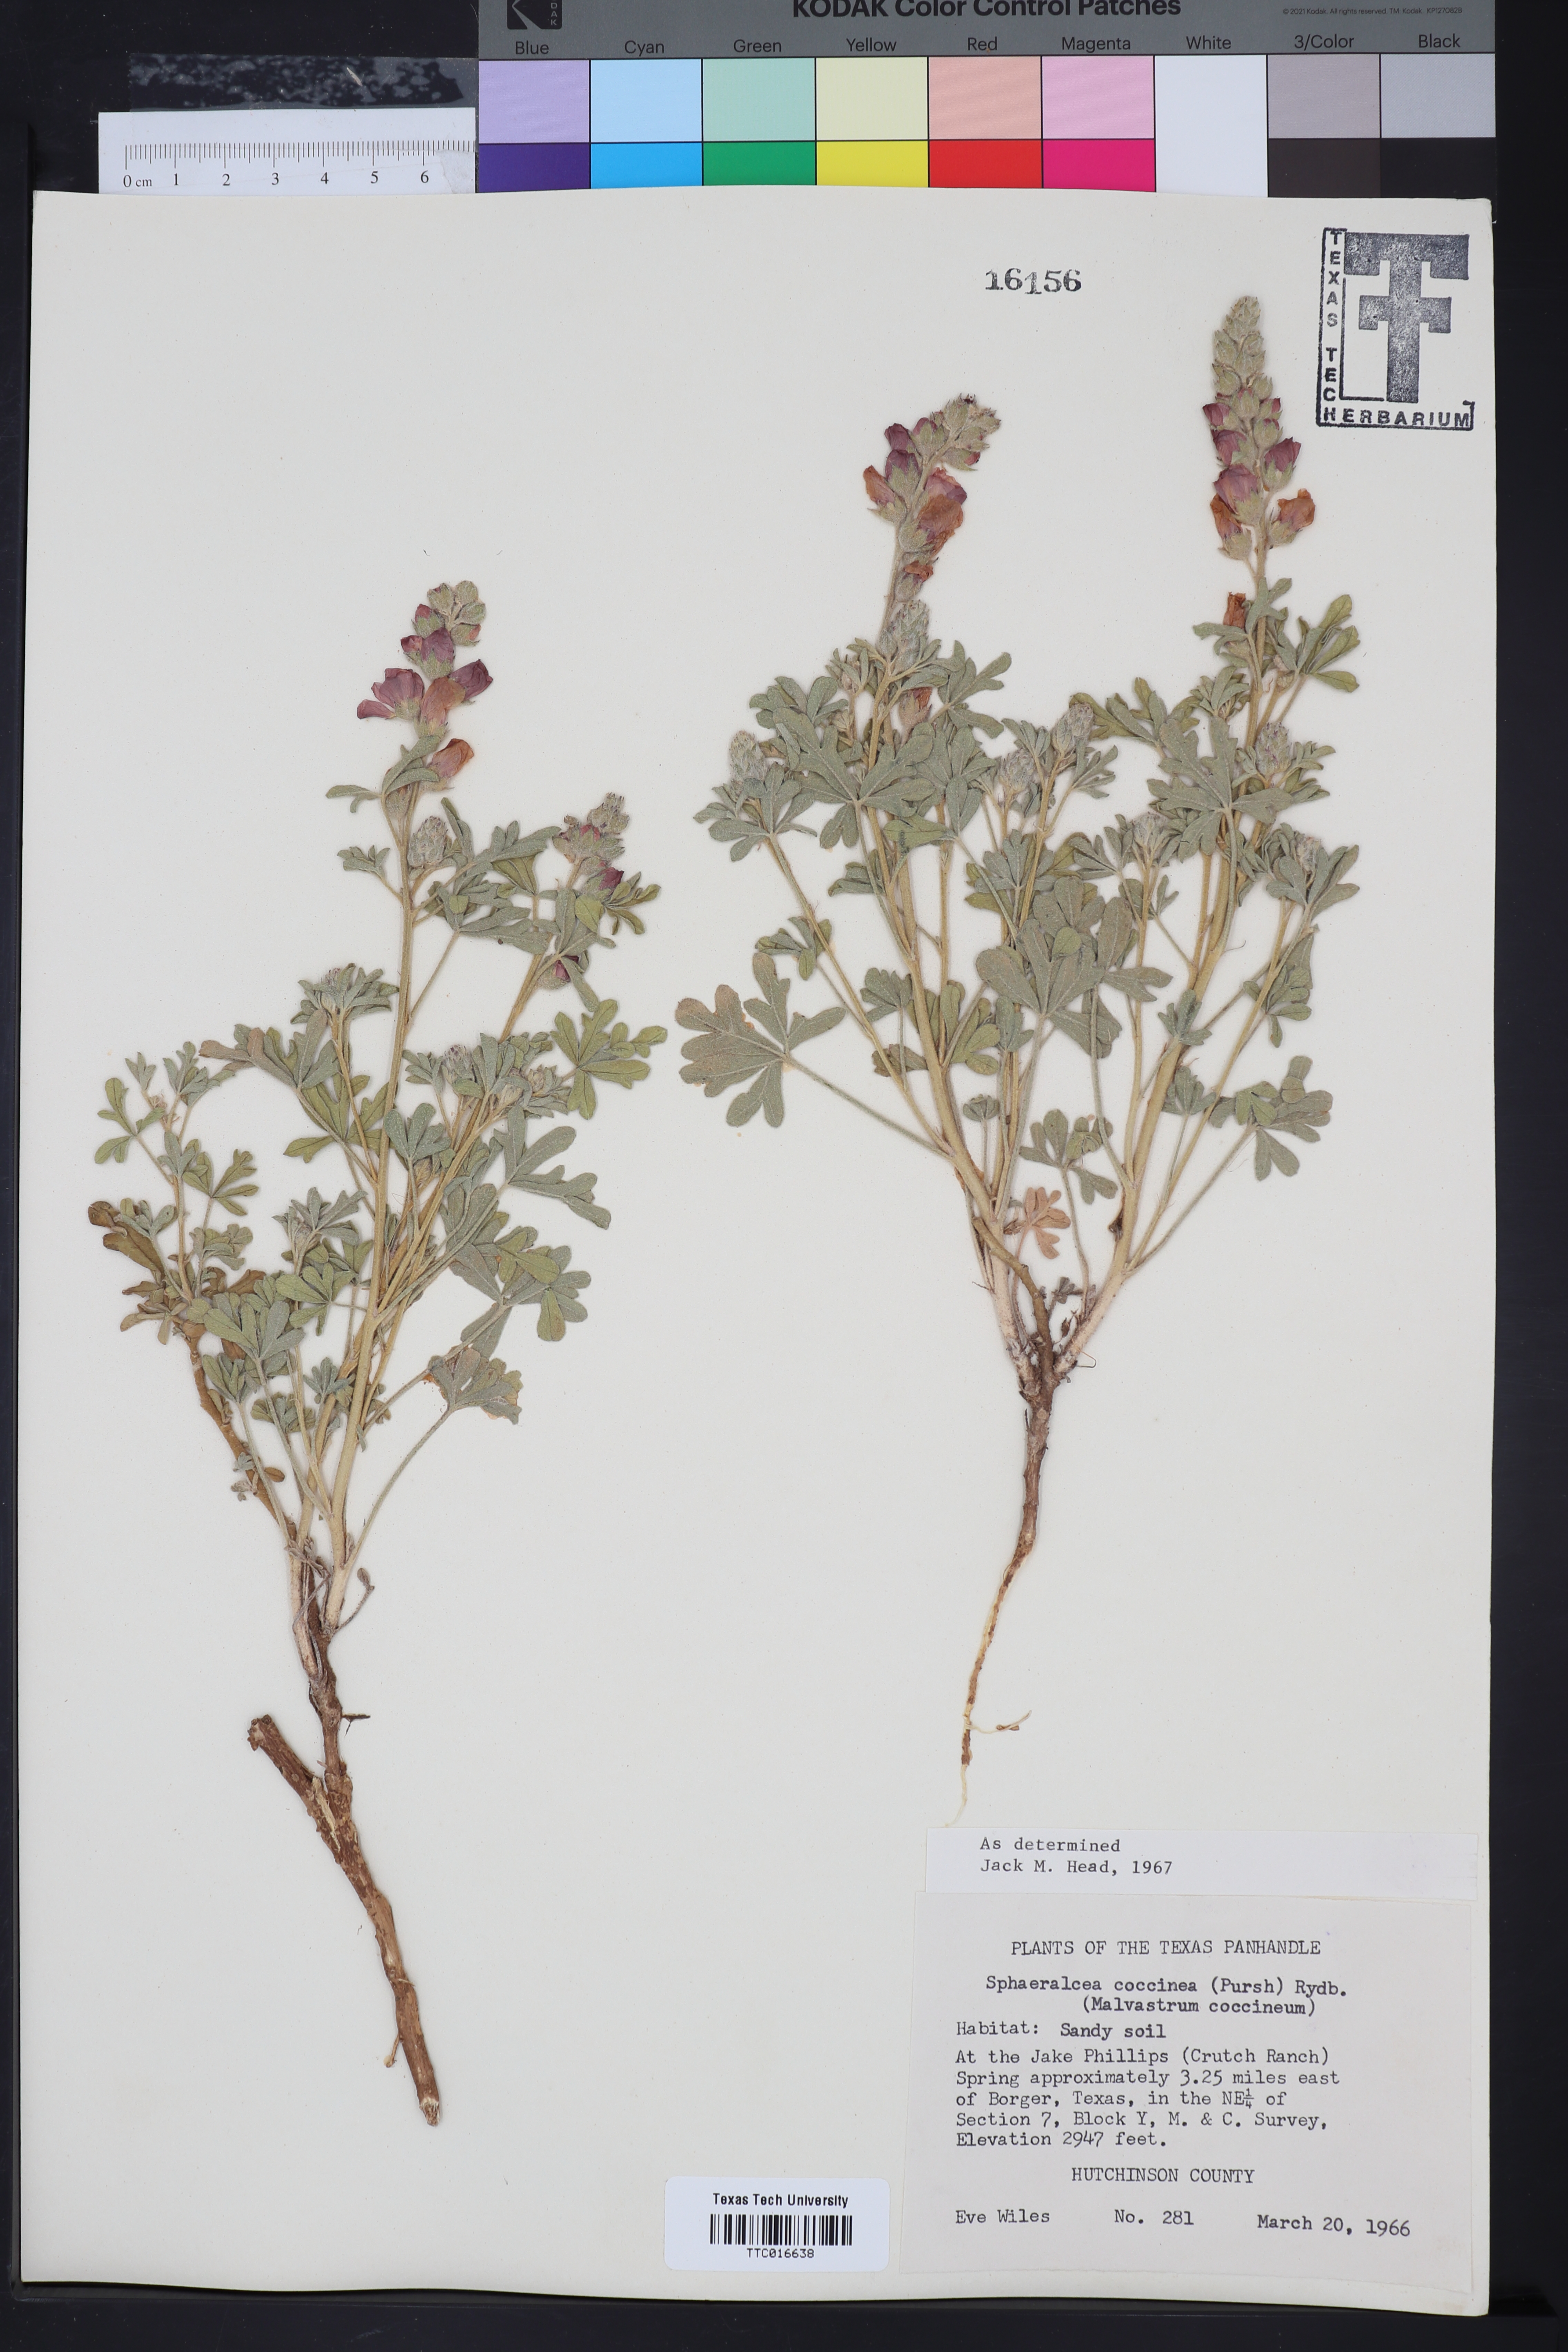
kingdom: Plantae
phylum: Tracheophyta
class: Magnoliopsida
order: Malvales
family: Malvaceae
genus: Sphaeralcea
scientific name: Sphaeralcea coccinea
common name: Moss-rose
